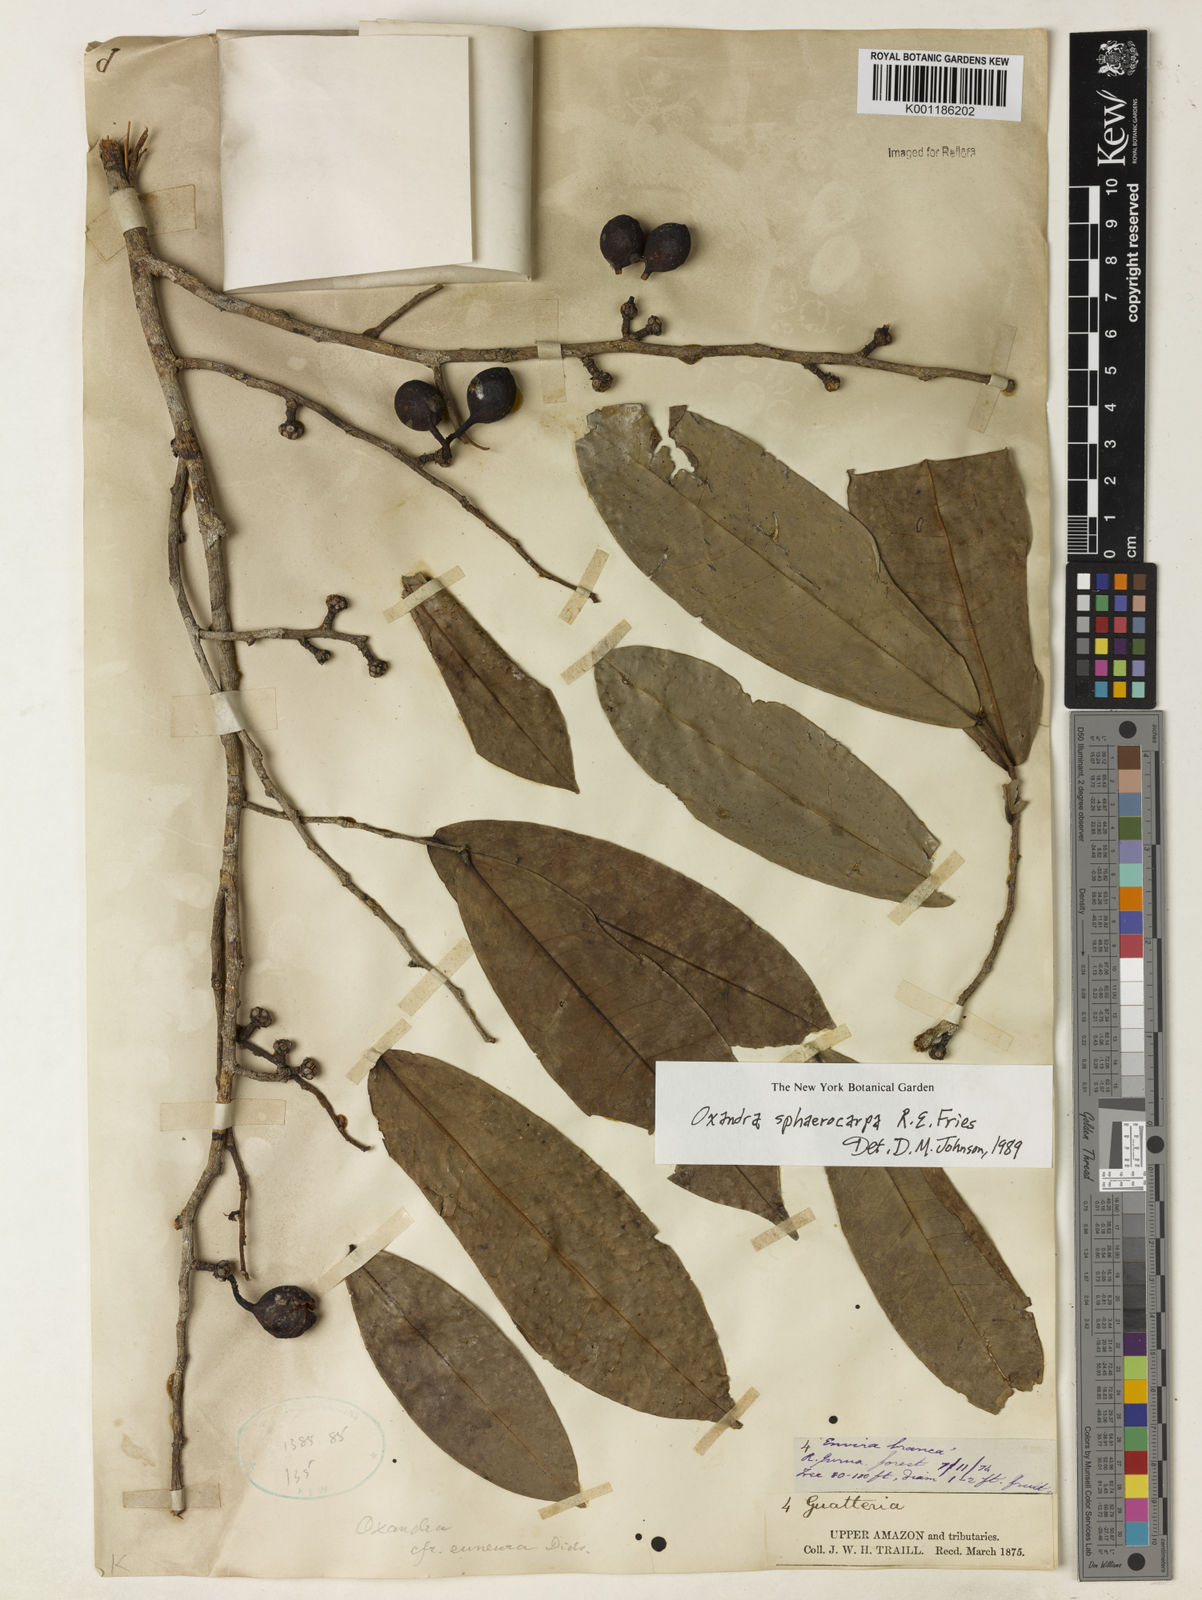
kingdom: Plantae
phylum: Tracheophyta
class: Magnoliopsida
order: Magnoliales
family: Annonaceae
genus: Oxandra
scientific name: Oxandra sphaerocarpa
